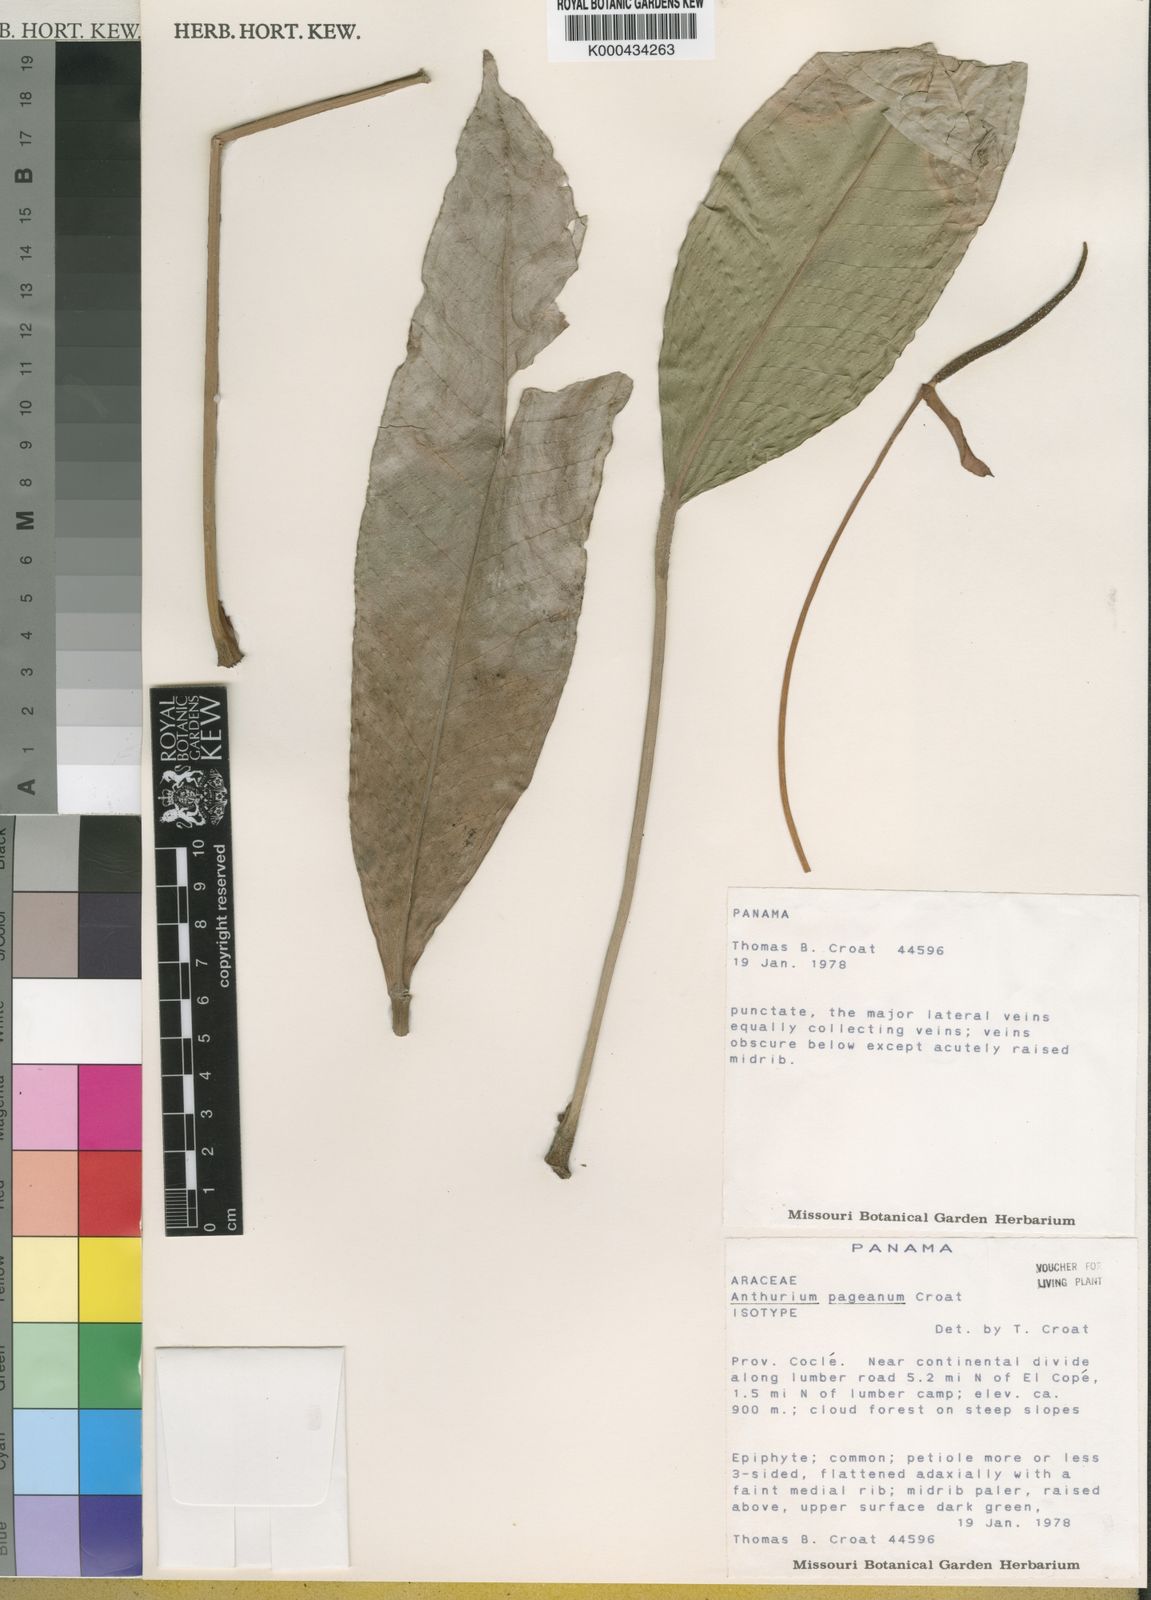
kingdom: Plantae
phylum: Tracheophyta
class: Liliopsida
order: Alismatales
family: Araceae
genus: Anthurium
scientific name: Anthurium pageanum
